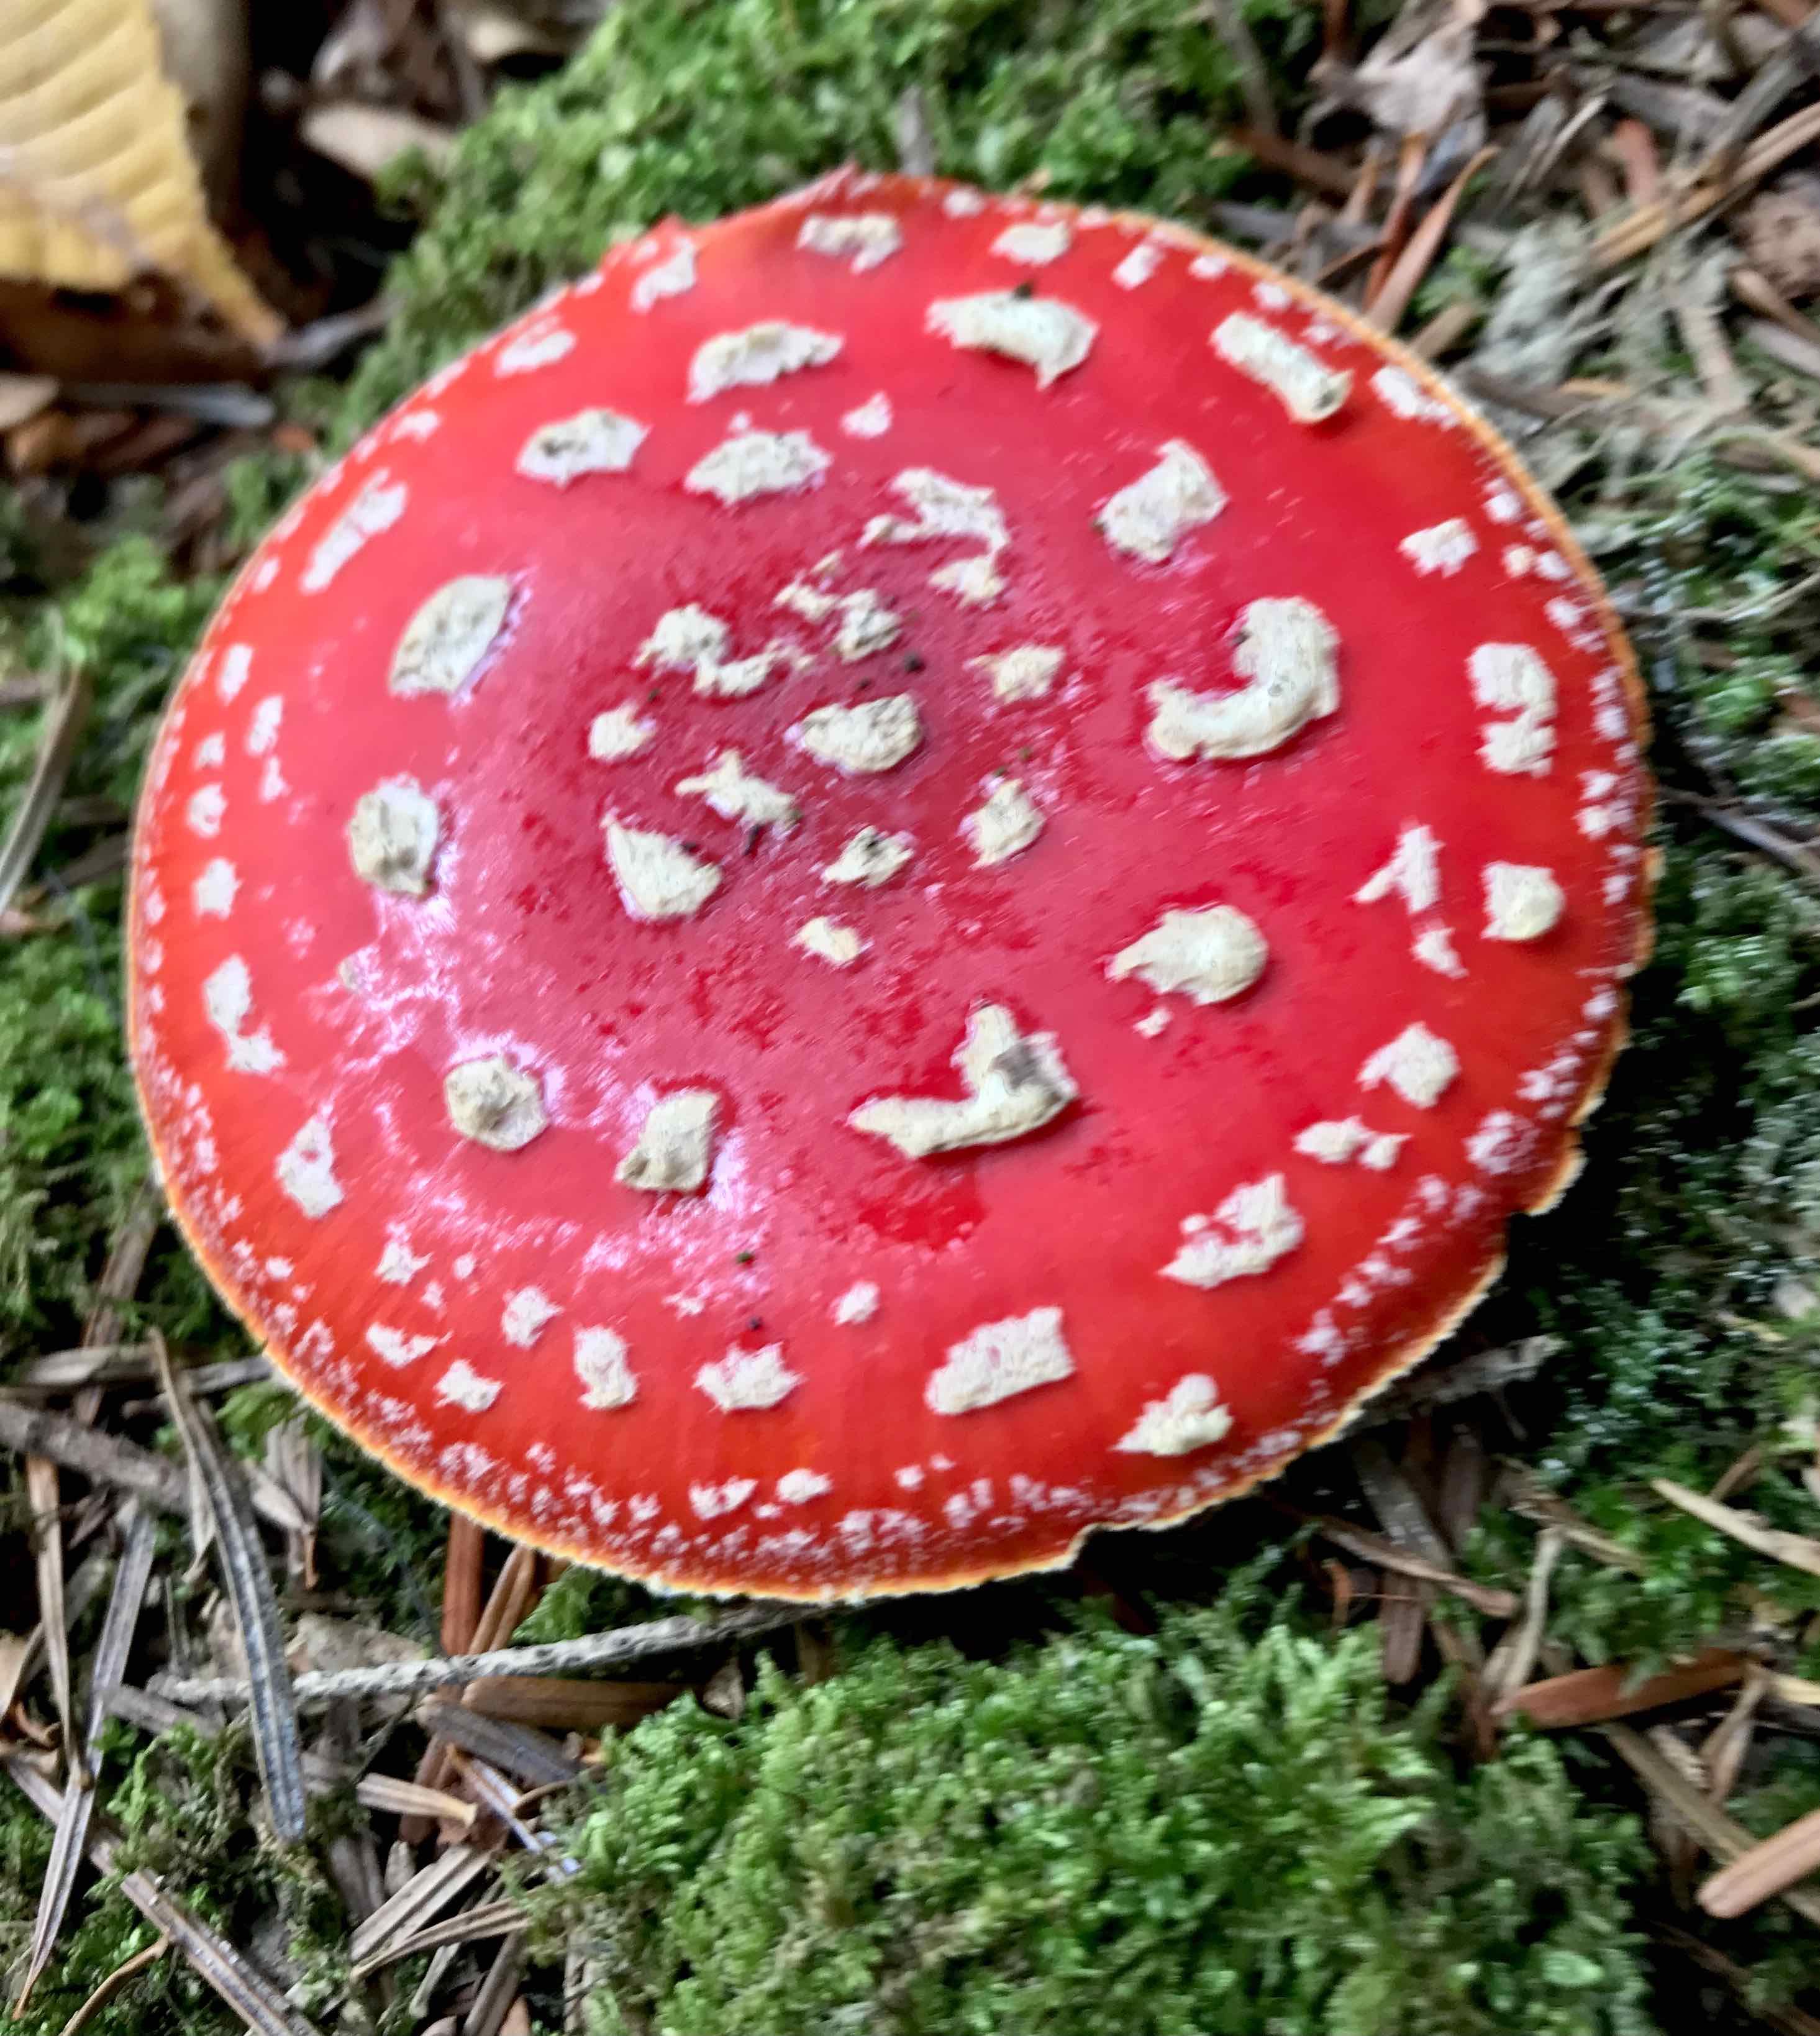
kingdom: Fungi
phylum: Basidiomycota
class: Agaricomycetes
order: Agaricales
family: Amanitaceae
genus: Amanita
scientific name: Amanita muscaria
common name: rød fluesvamp
